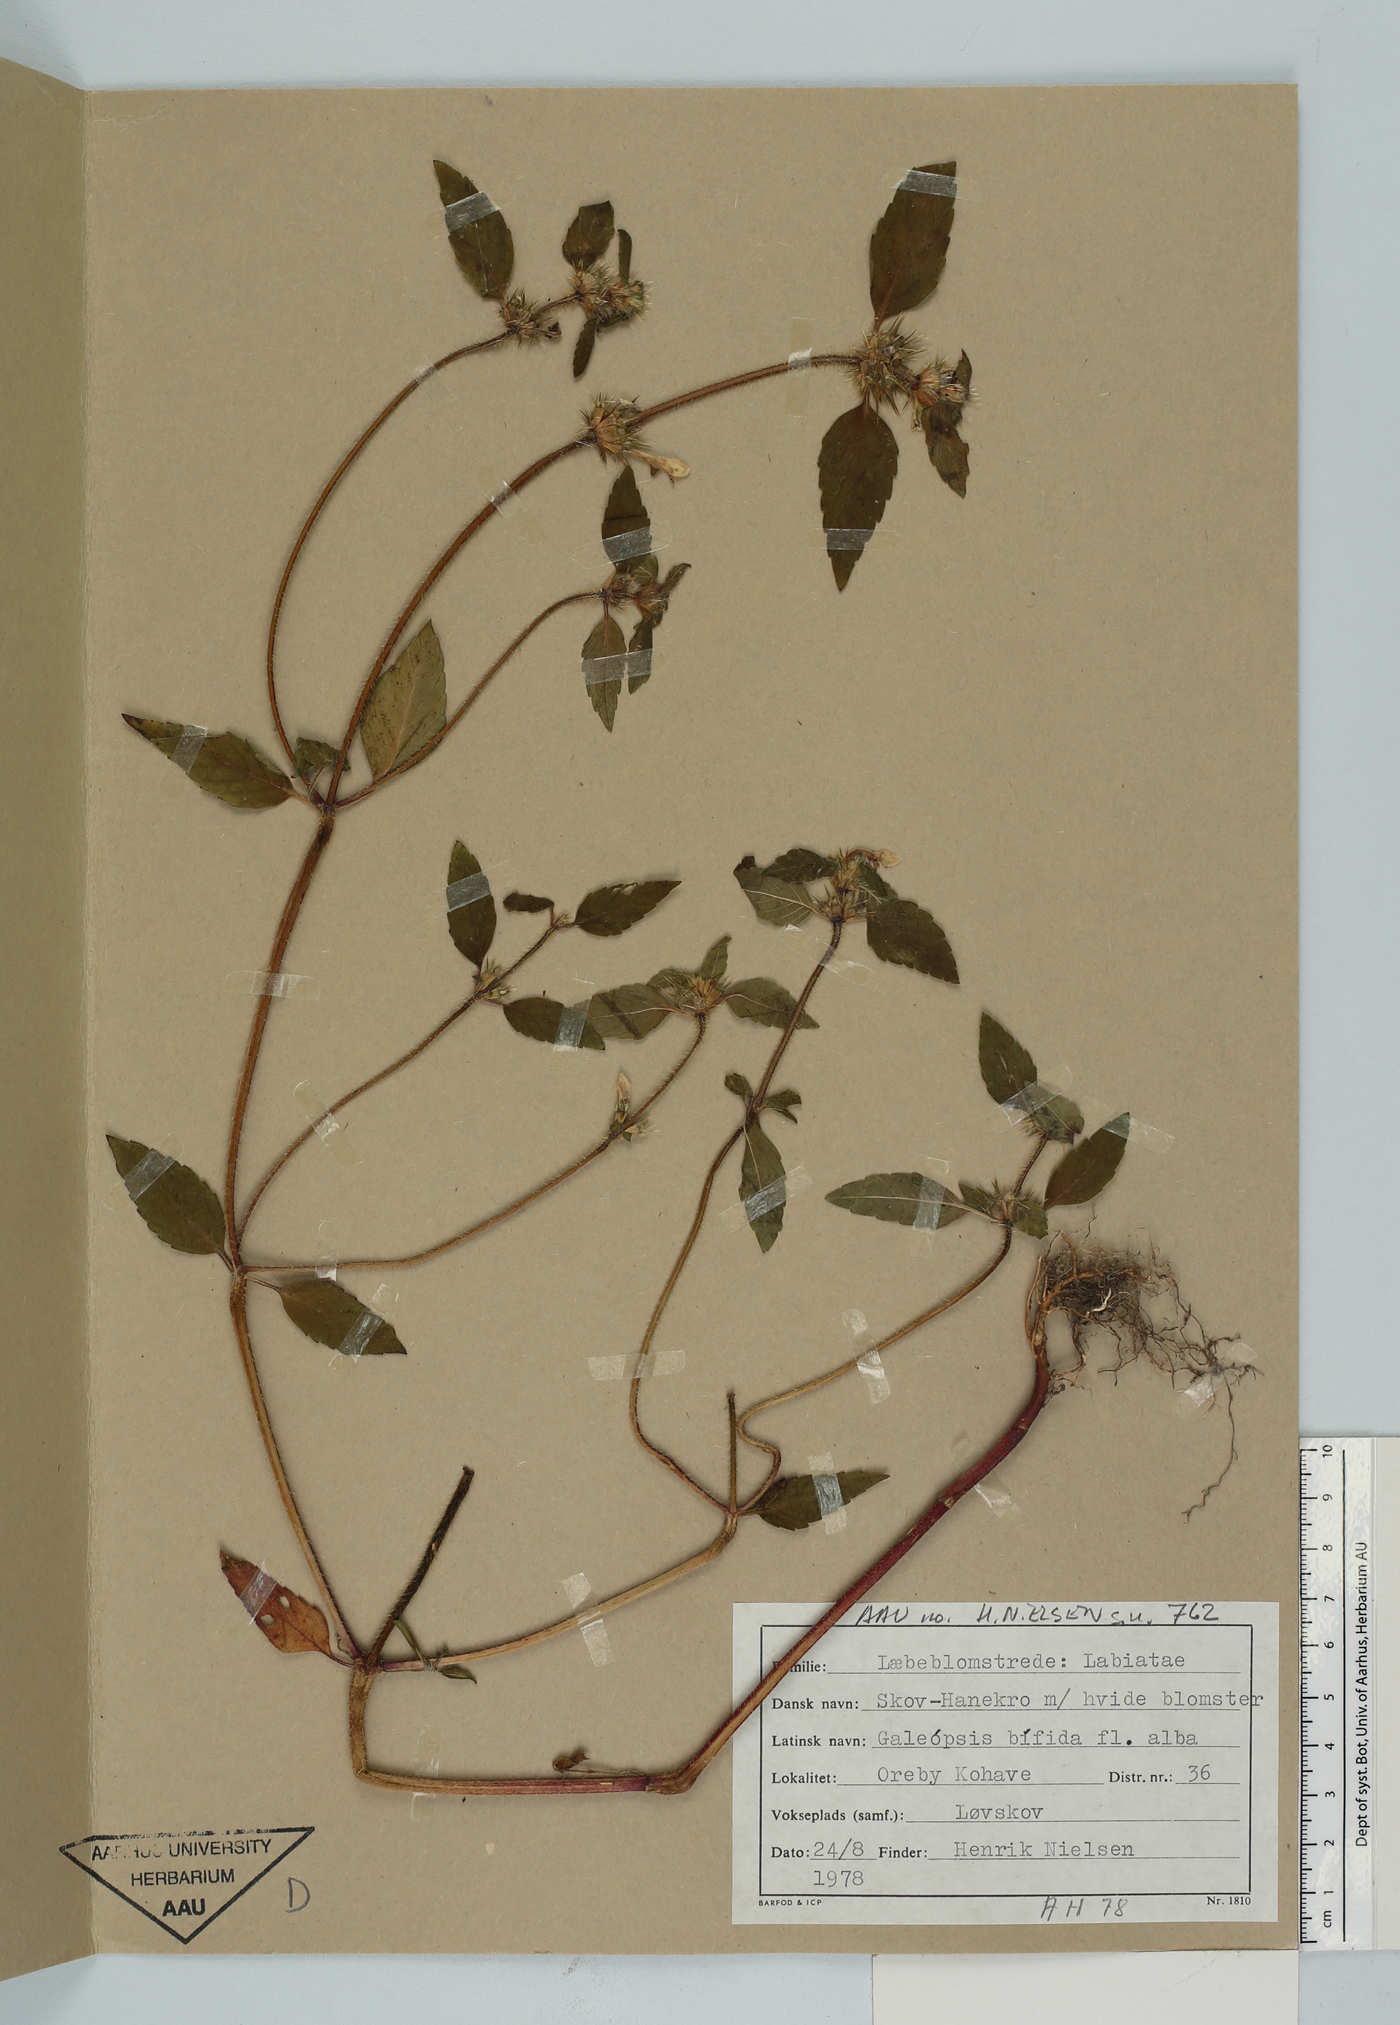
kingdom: Plantae
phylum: Tracheophyta
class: Magnoliopsida
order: Lamiales
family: Lamiaceae
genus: Galeopsis
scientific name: Galeopsis bifida
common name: Bifid hemp-nettle
